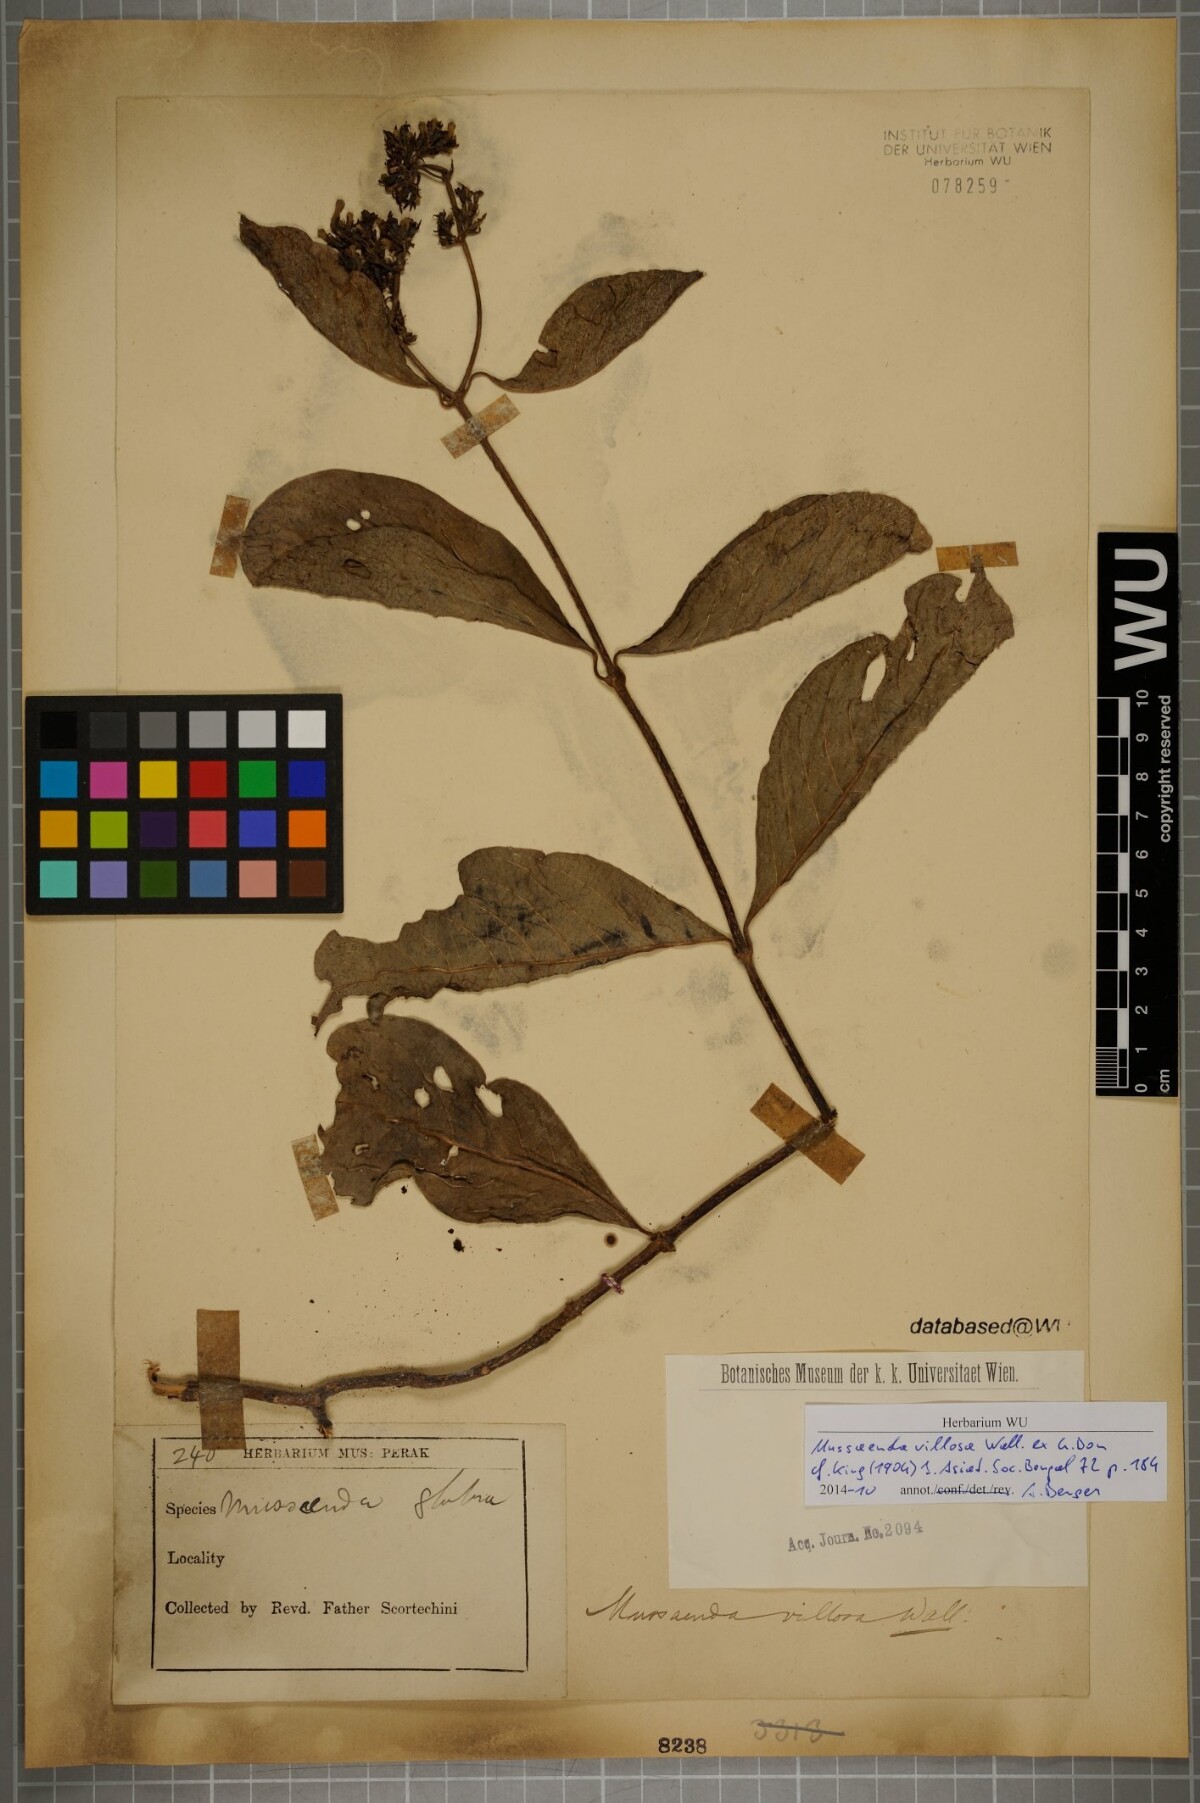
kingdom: Plantae
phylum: Tracheophyta
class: Magnoliopsida
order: Gentianales
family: Rubiaceae
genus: Mussaenda
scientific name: Mussaenda villosa
